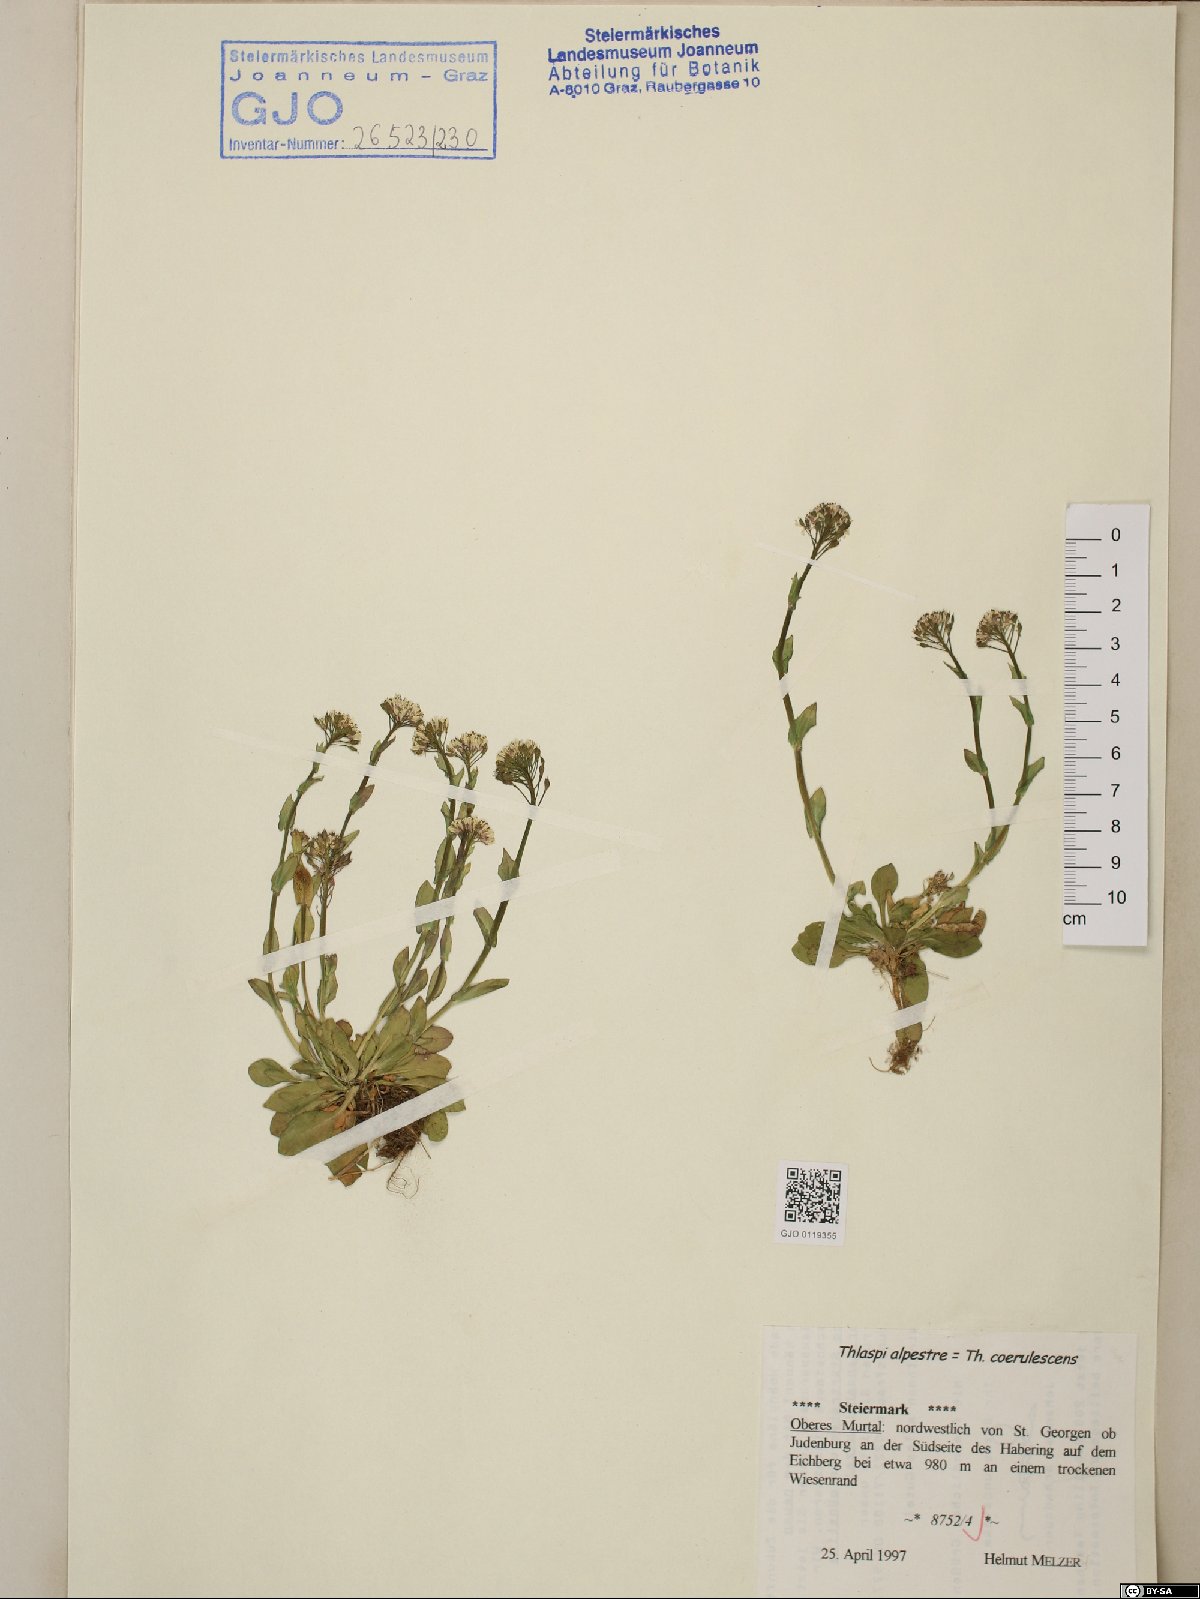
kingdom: Plantae
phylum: Tracheophyta
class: Magnoliopsida
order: Brassicales
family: Brassicaceae
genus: Noccaea
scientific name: Noccaea caerulescens
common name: Alpine pennycress
